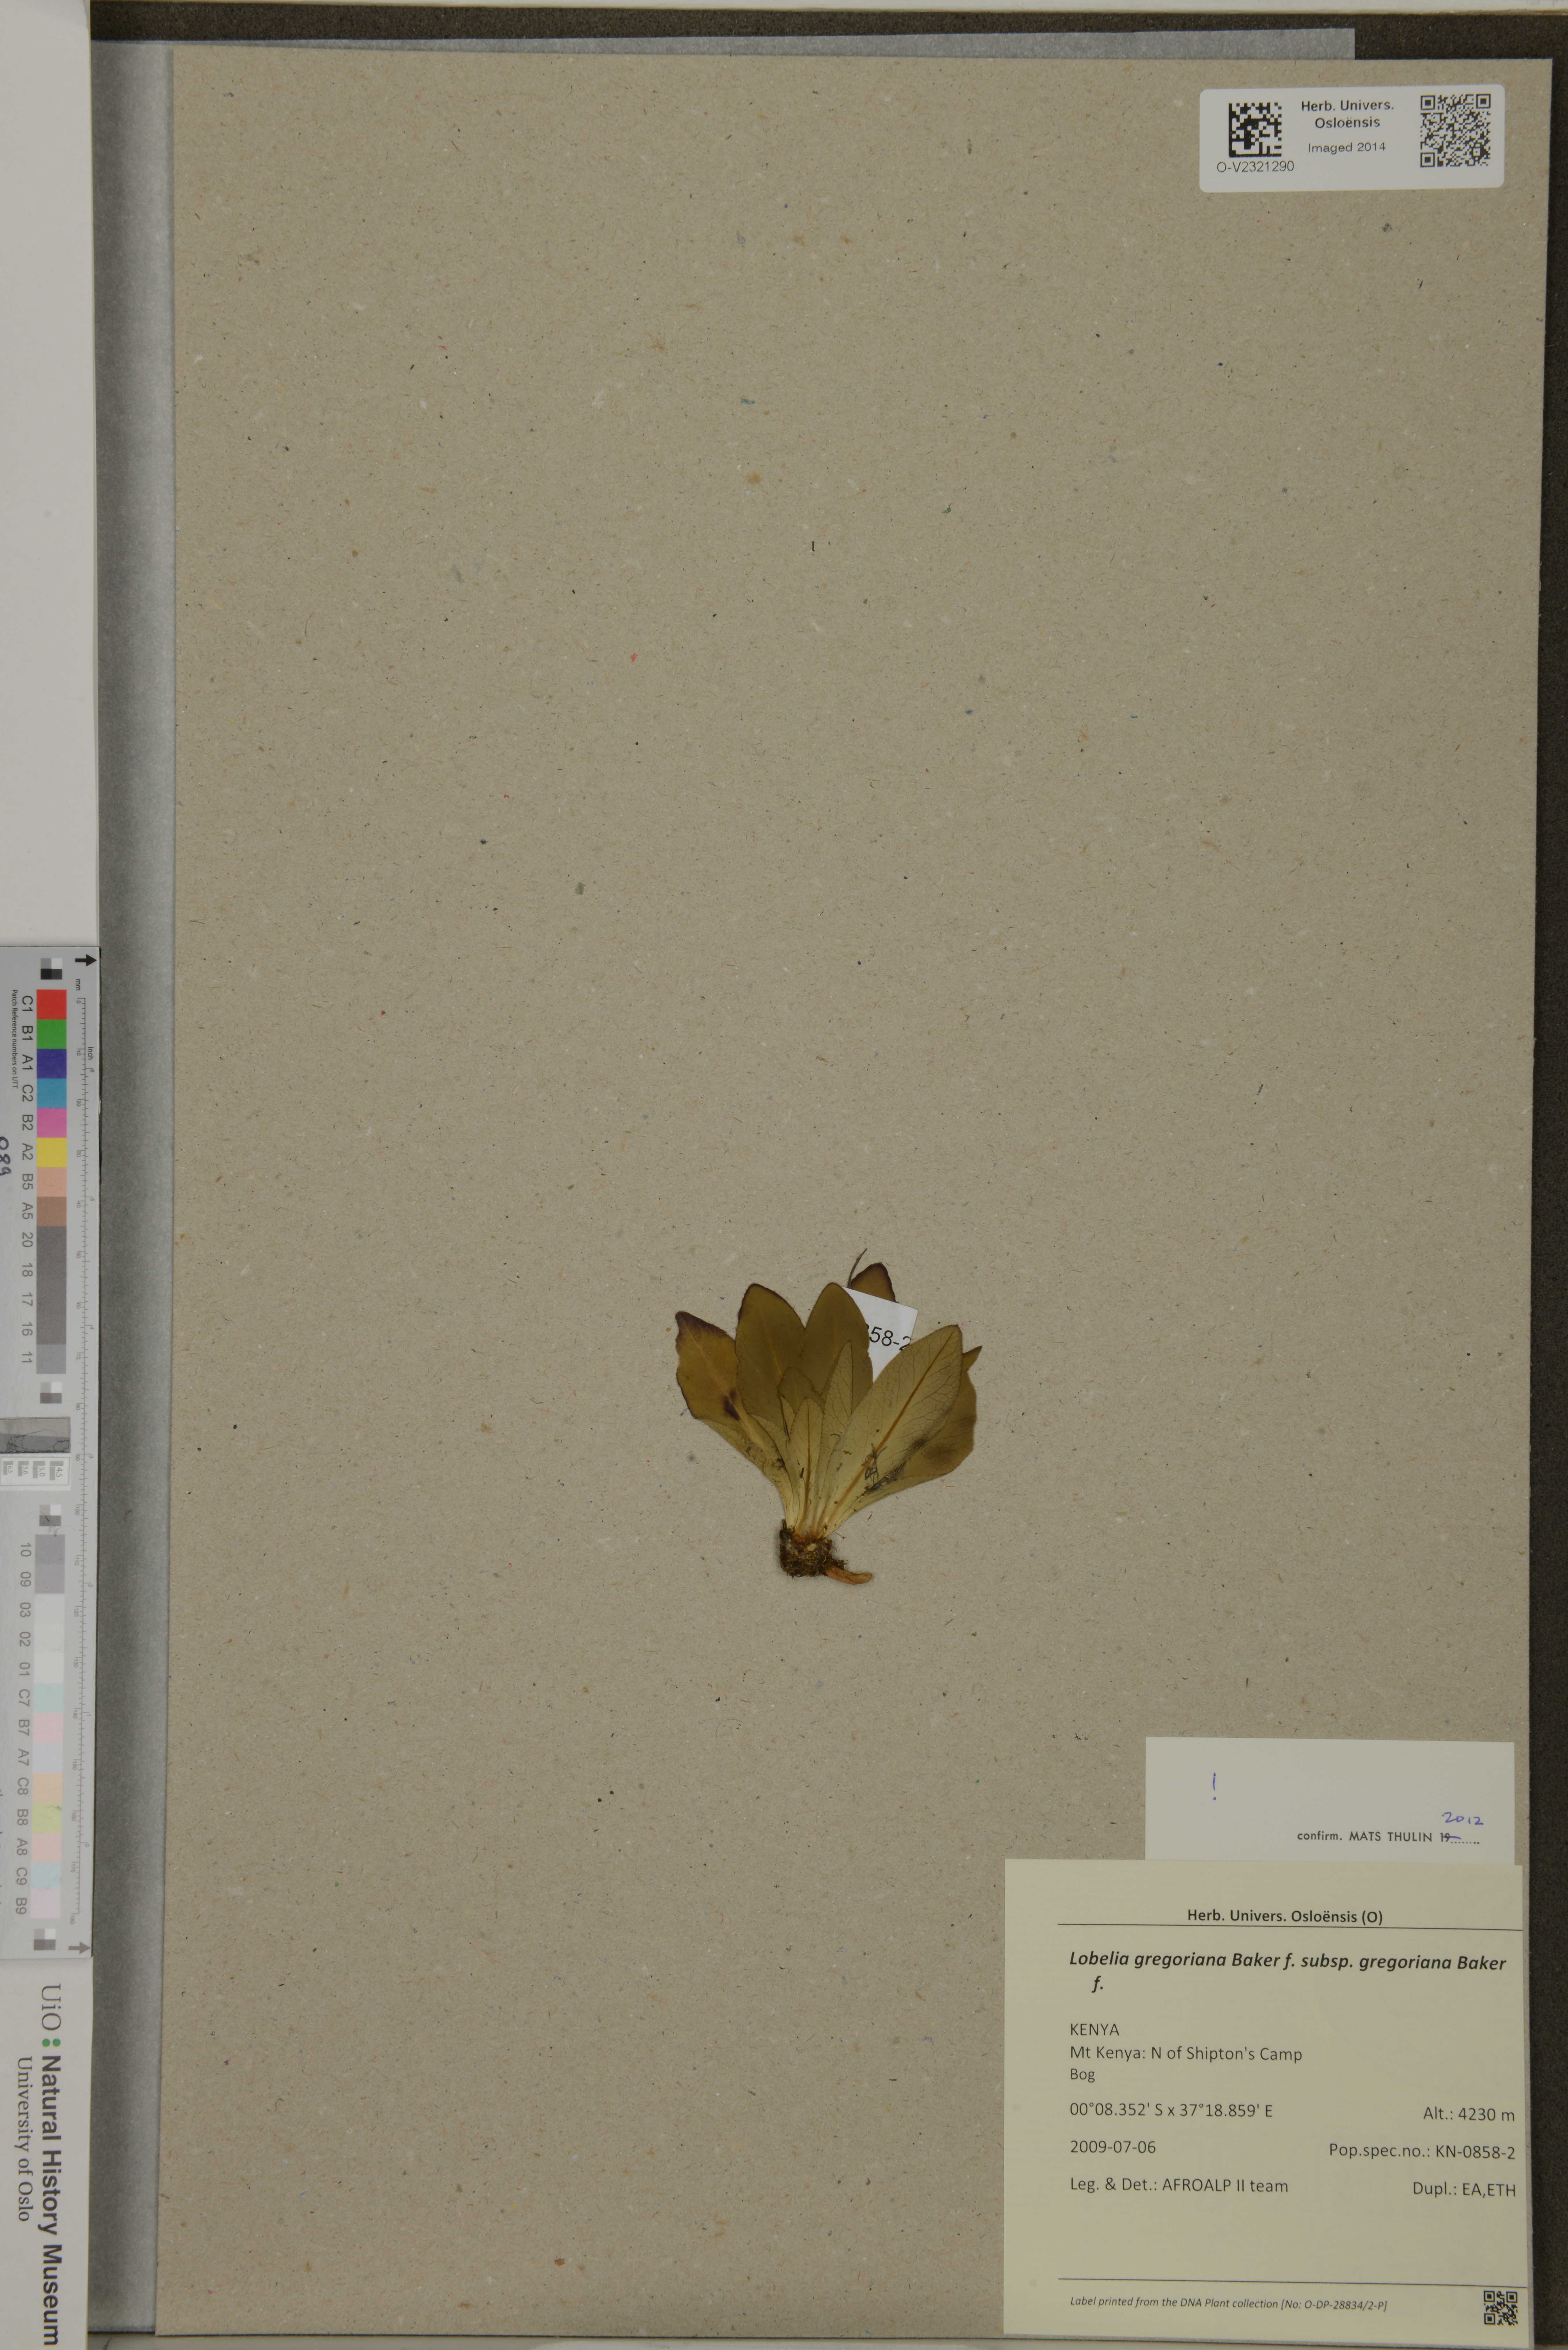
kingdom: Plantae
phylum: Tracheophyta
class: Magnoliopsida
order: Asterales
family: Campanulaceae
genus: Lobelia
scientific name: Lobelia gregoriana
